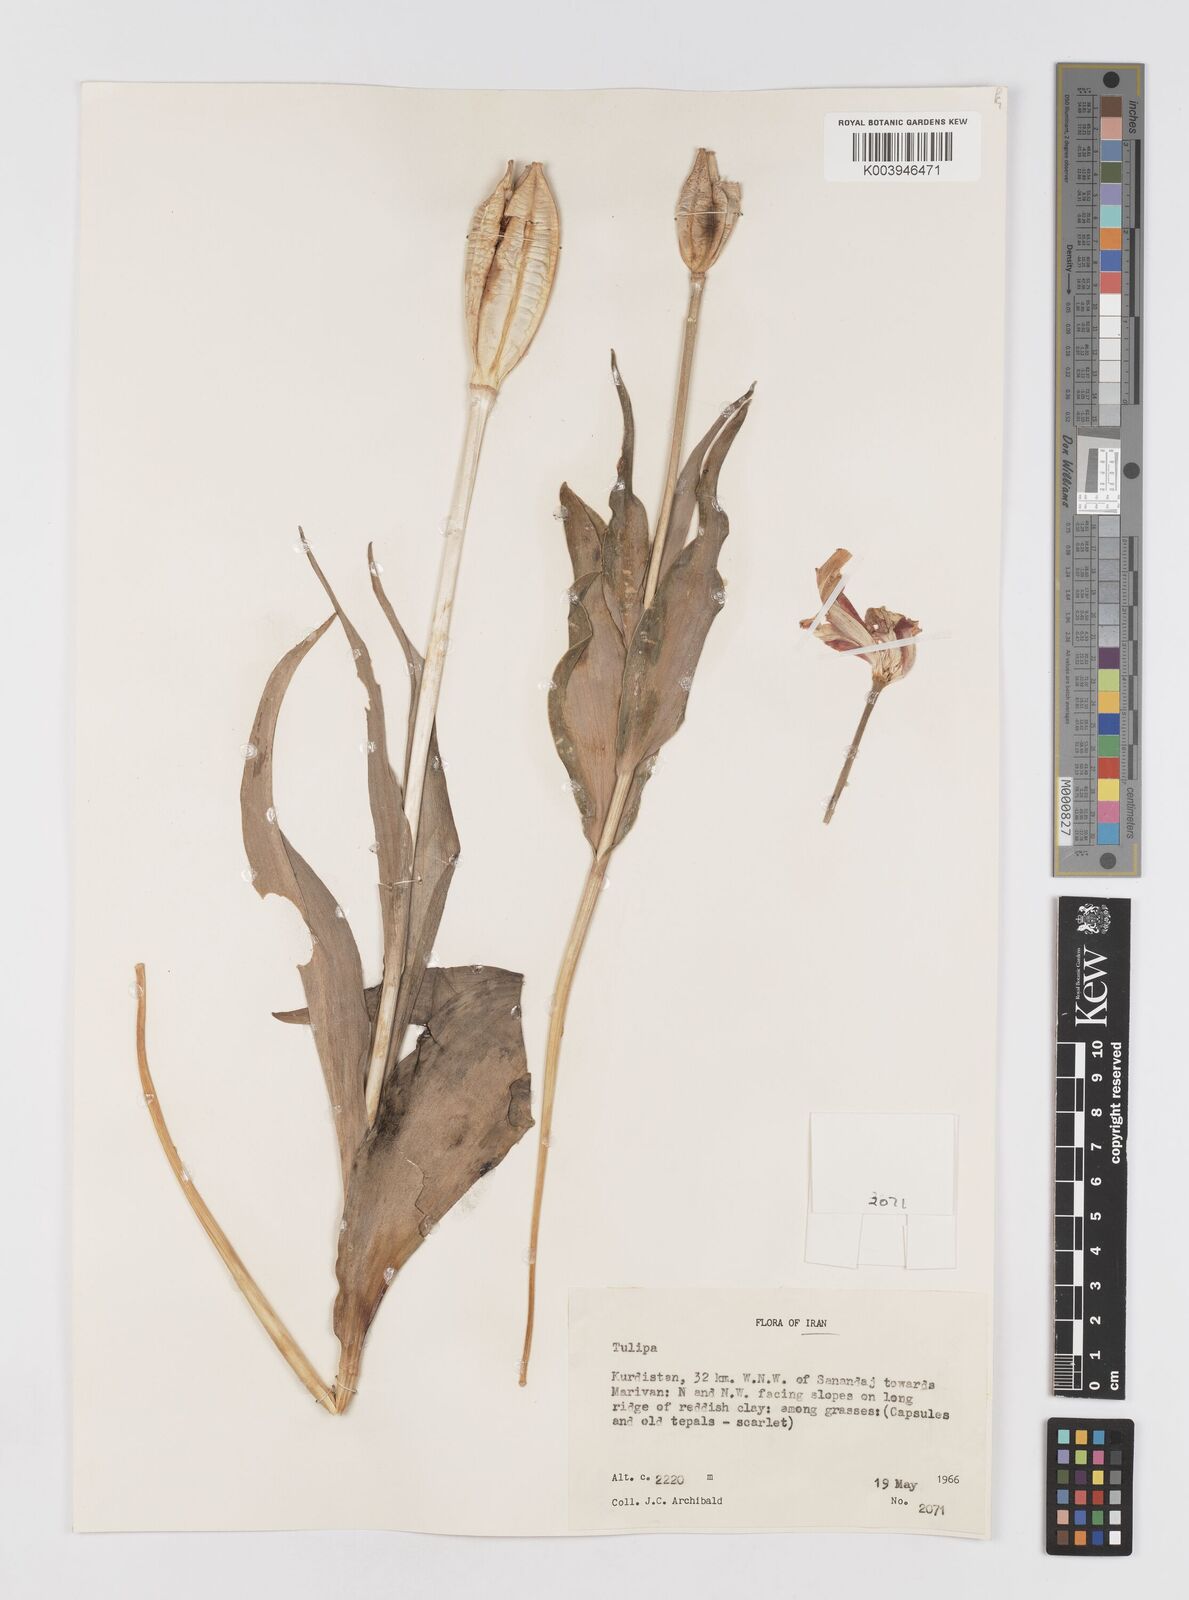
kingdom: Plantae
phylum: Tracheophyta
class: Liliopsida
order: Liliales
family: Liliaceae
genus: Tulipa
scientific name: Tulipa
